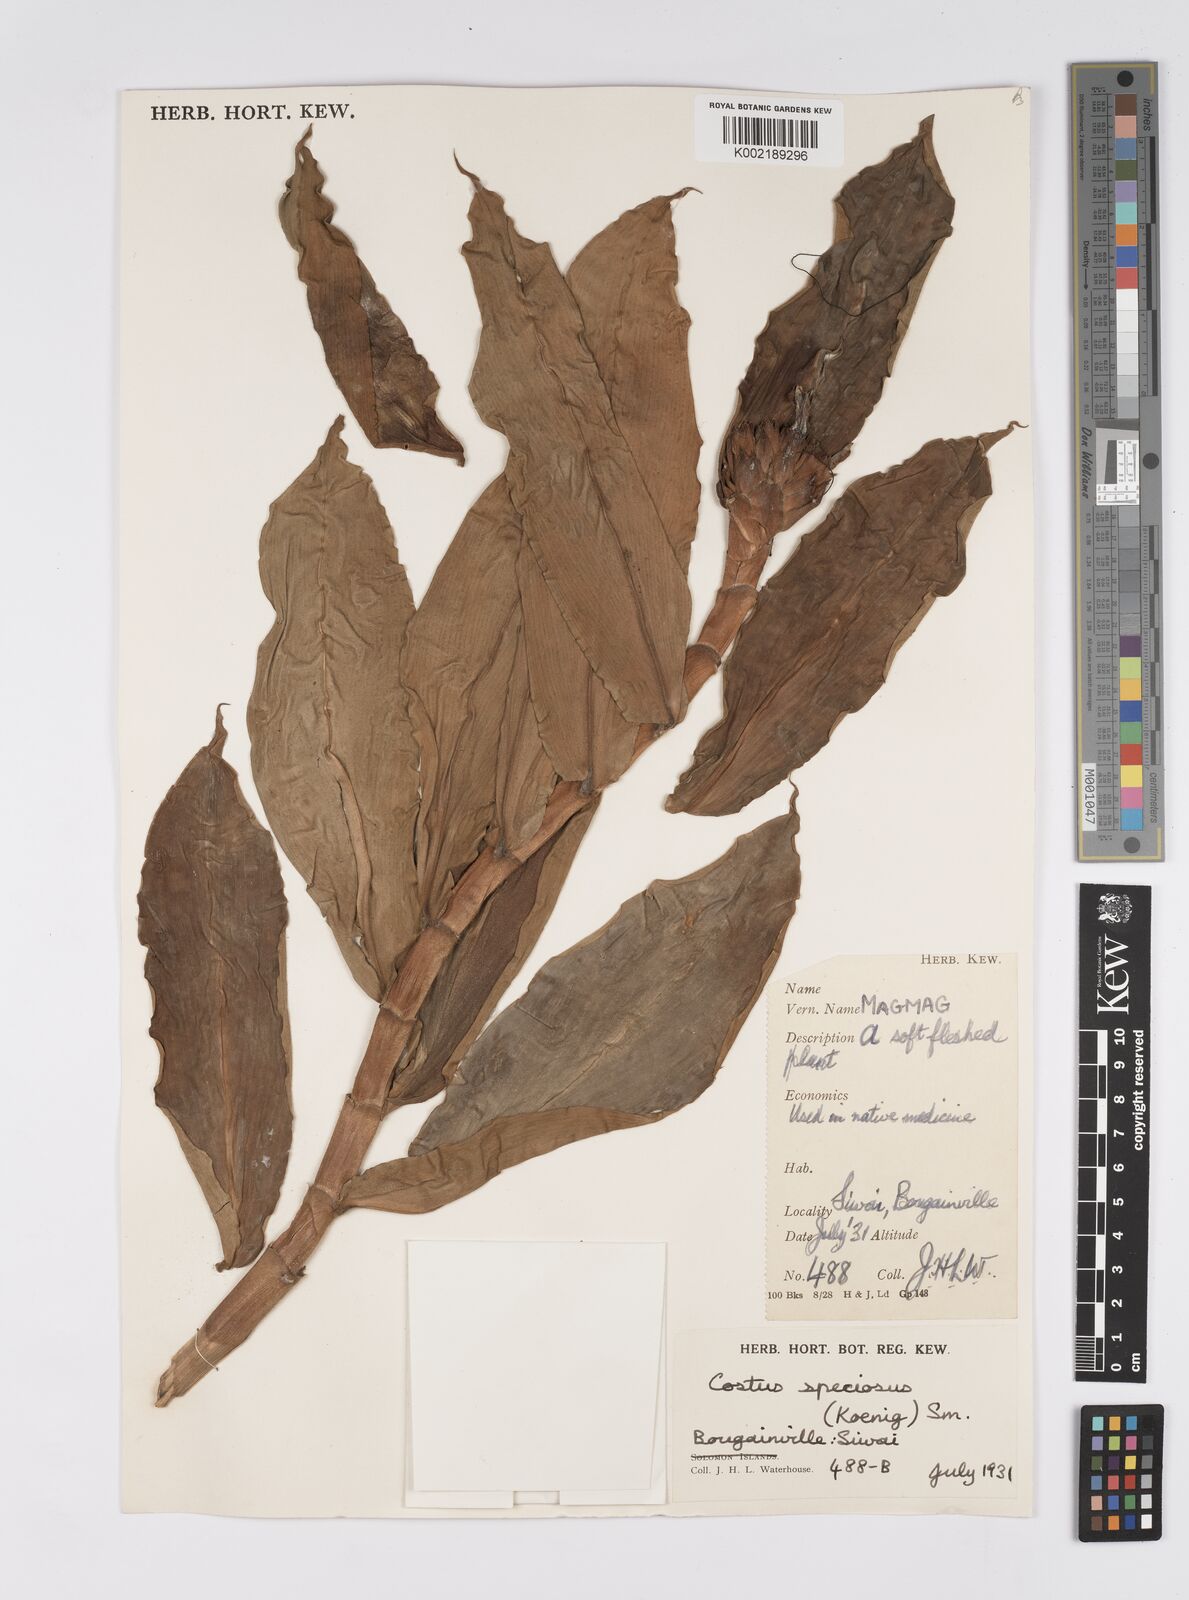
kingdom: Plantae
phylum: Tracheophyta
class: Liliopsida
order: Zingiberales
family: Costaceae
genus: Hellenia
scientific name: Hellenia speciosa
